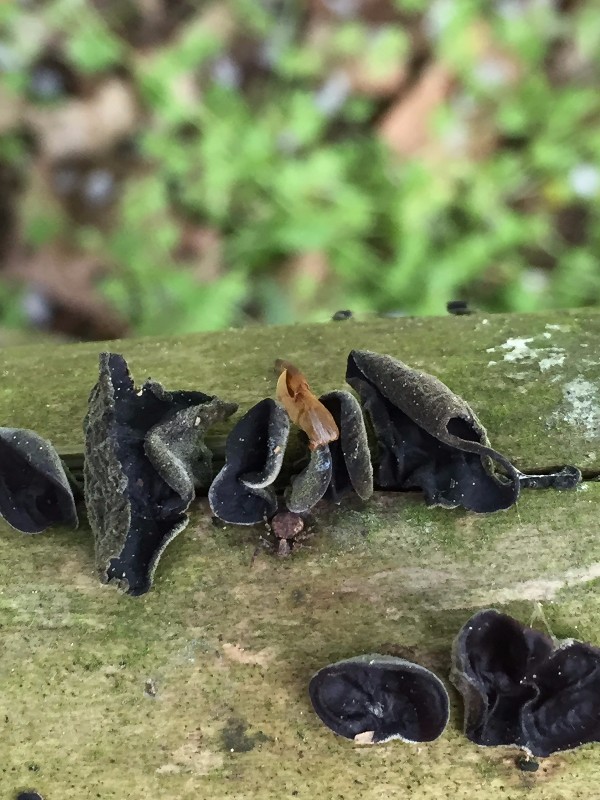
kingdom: Fungi
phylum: Basidiomycota
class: Agaricomycetes
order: Auriculariales
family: Auriculariaceae
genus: Auricularia
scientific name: Auricularia auricula-judae
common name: almindelig judasøre
